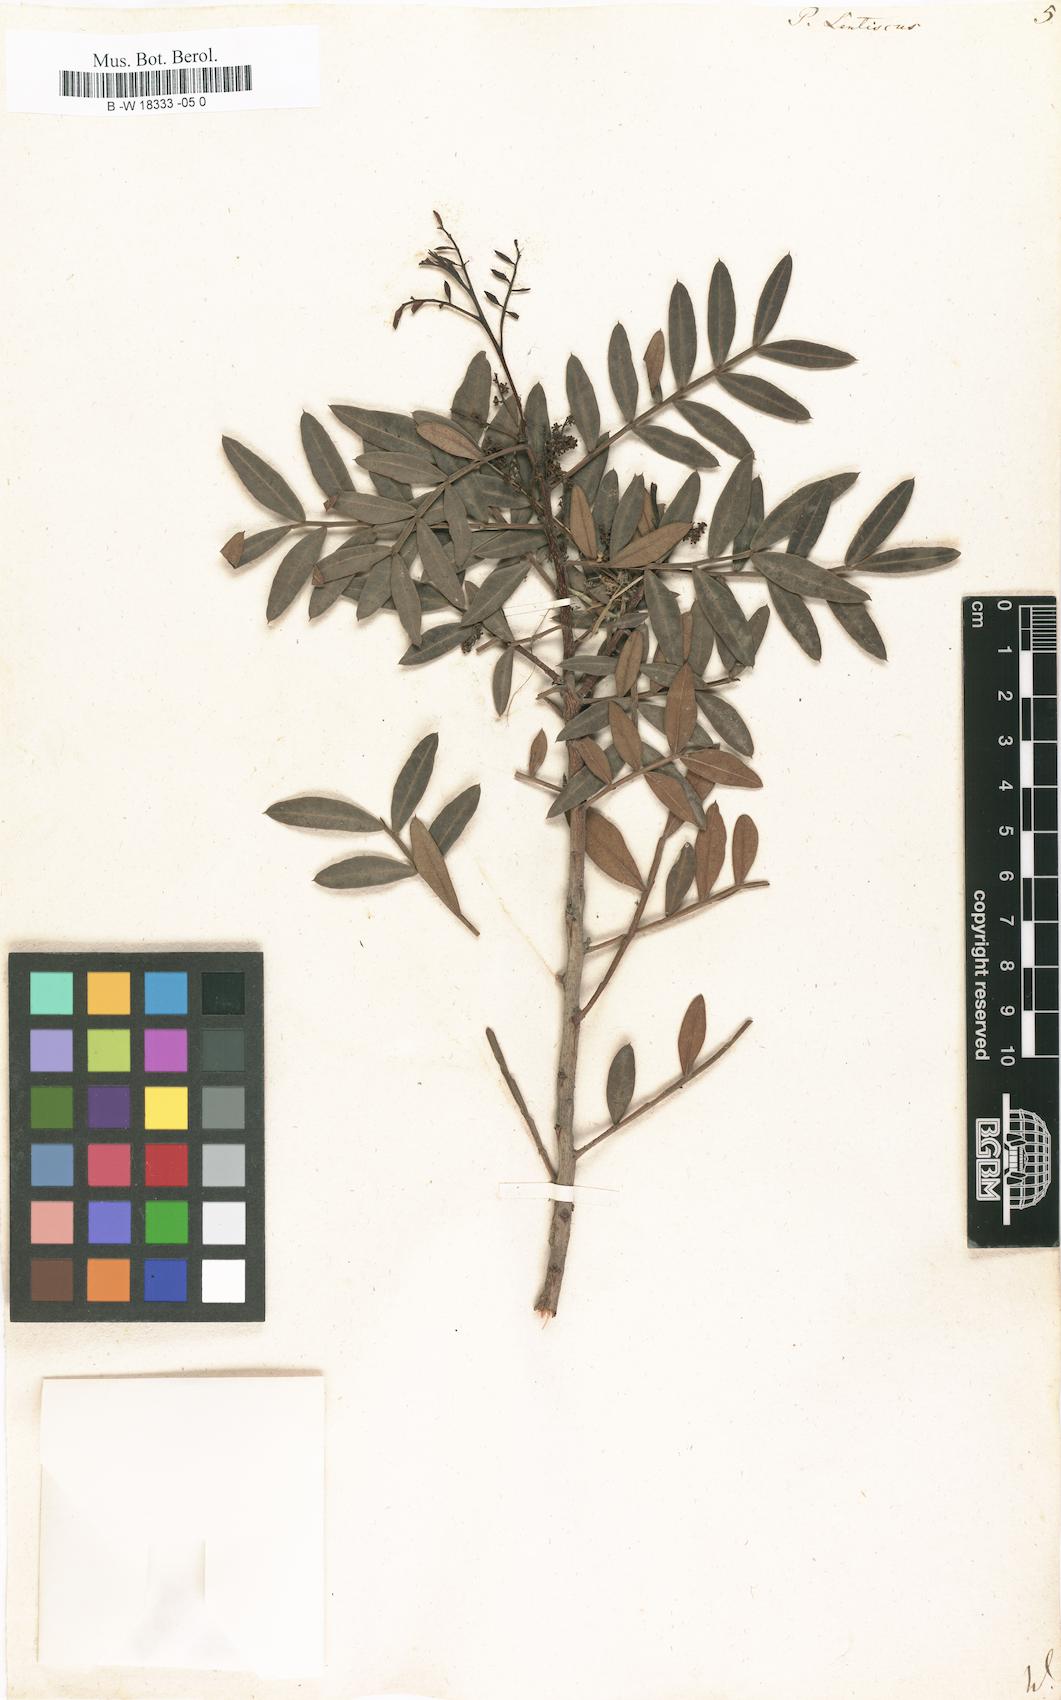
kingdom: Plantae
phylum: Tracheophyta
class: Magnoliopsida
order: Sapindales
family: Anacardiaceae
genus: Pistacia
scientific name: Pistacia lentiscus
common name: Lentisk
